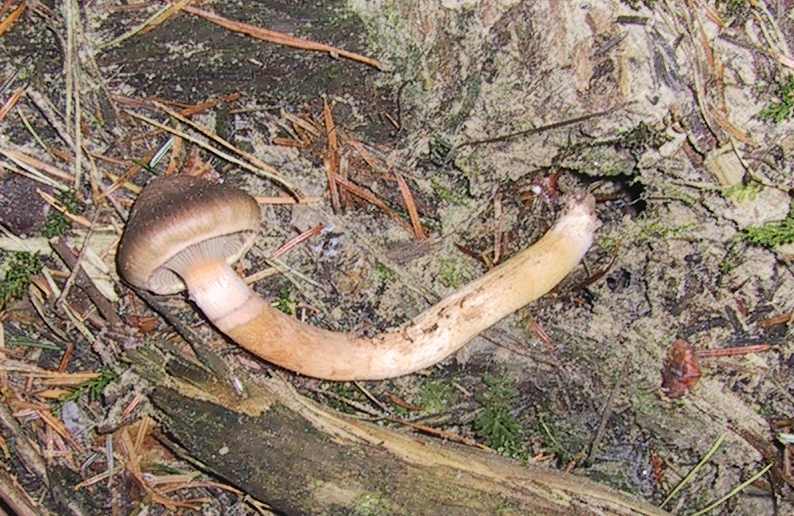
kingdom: Fungi
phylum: Basidiomycota
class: Agaricomycetes
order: Boletales
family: Gomphidiaceae
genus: Chroogomphus
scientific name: Chroogomphus rutilus
